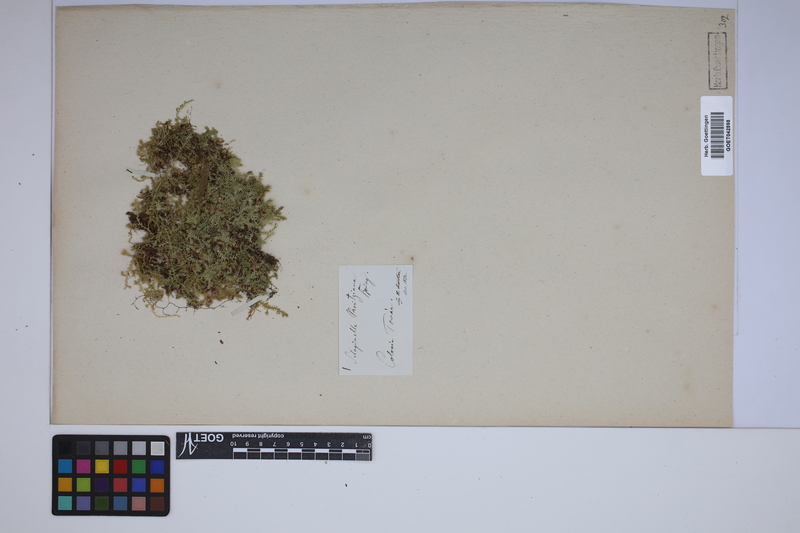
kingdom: Plantae
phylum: Tracheophyta
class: Lycopodiopsida
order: Selaginellales
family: Selaginellaceae
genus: Selaginella
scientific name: Selaginella moritziana
